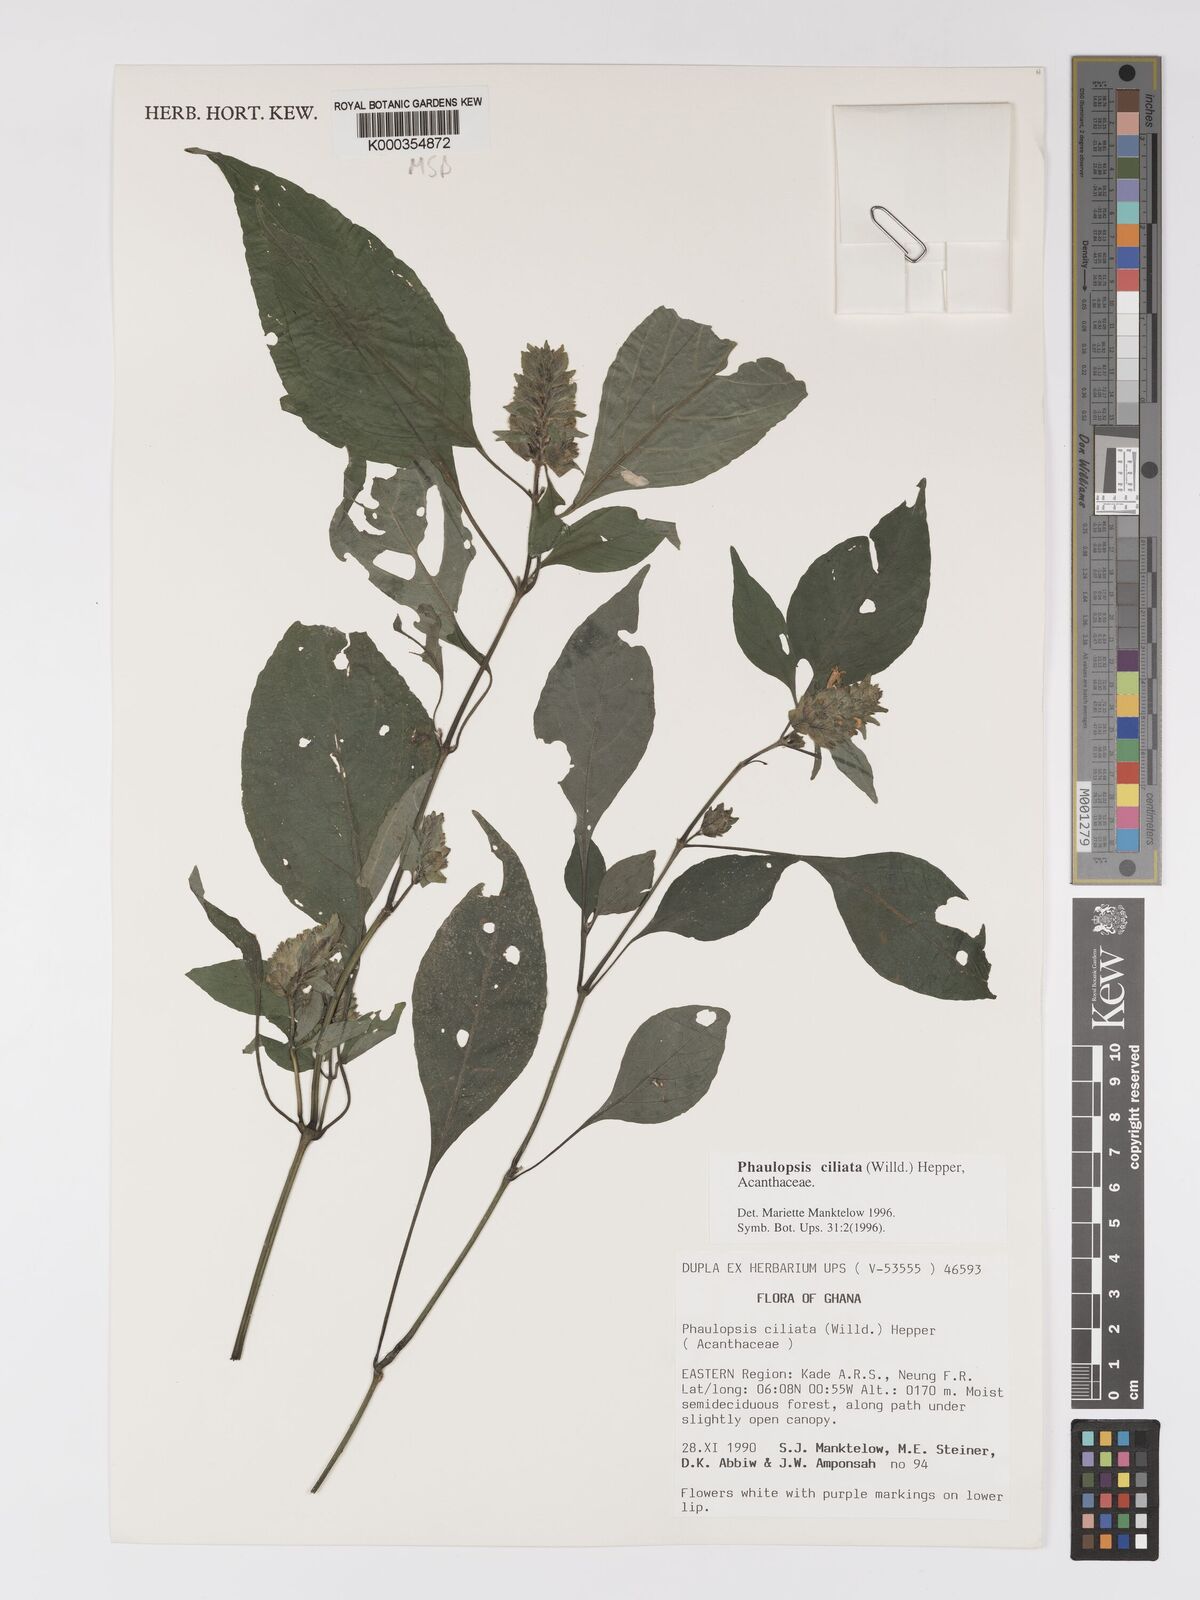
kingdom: Plantae
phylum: Tracheophyta
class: Magnoliopsida
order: Lamiales
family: Acanthaceae
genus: Phaulopsis
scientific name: Phaulopsis ciliata
